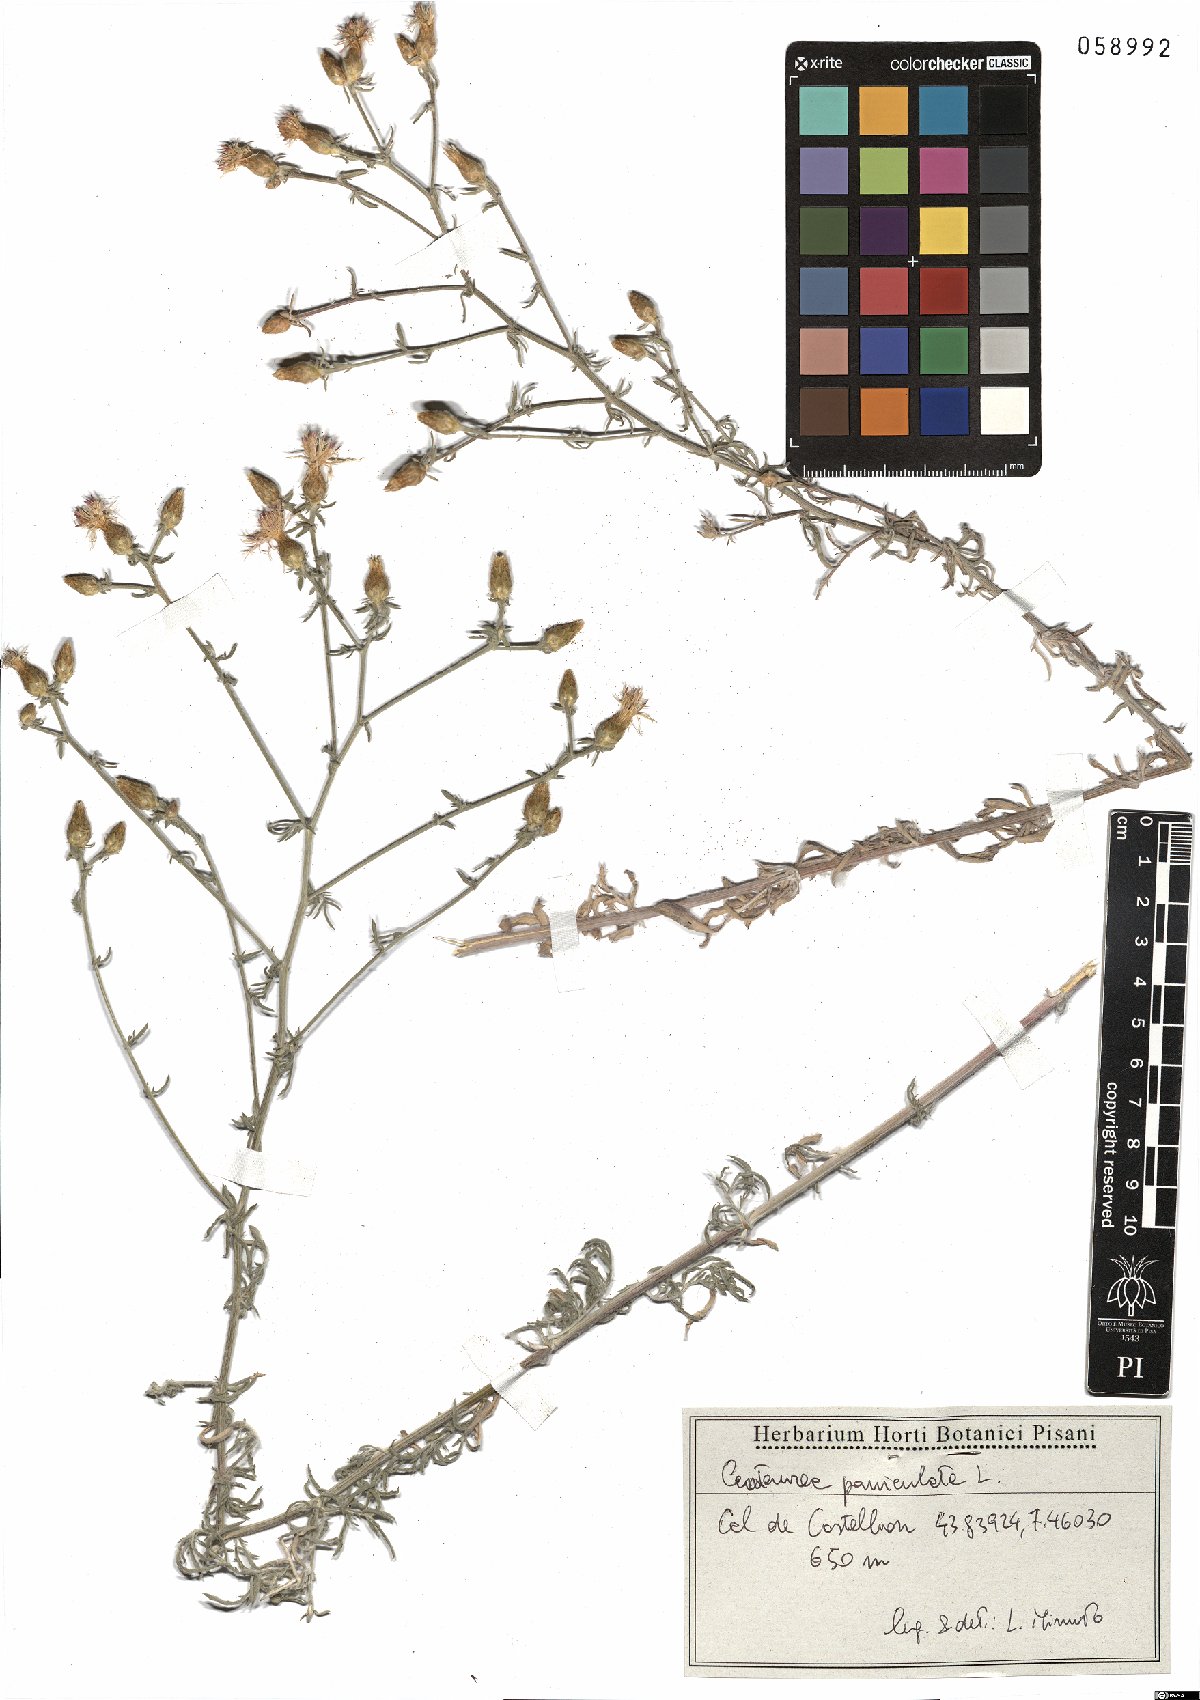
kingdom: Plantae
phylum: Tracheophyta
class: Magnoliopsida
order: Asterales
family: Asteraceae
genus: Centaurea
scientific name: Centaurea paniculata
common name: Jersey knapweed
